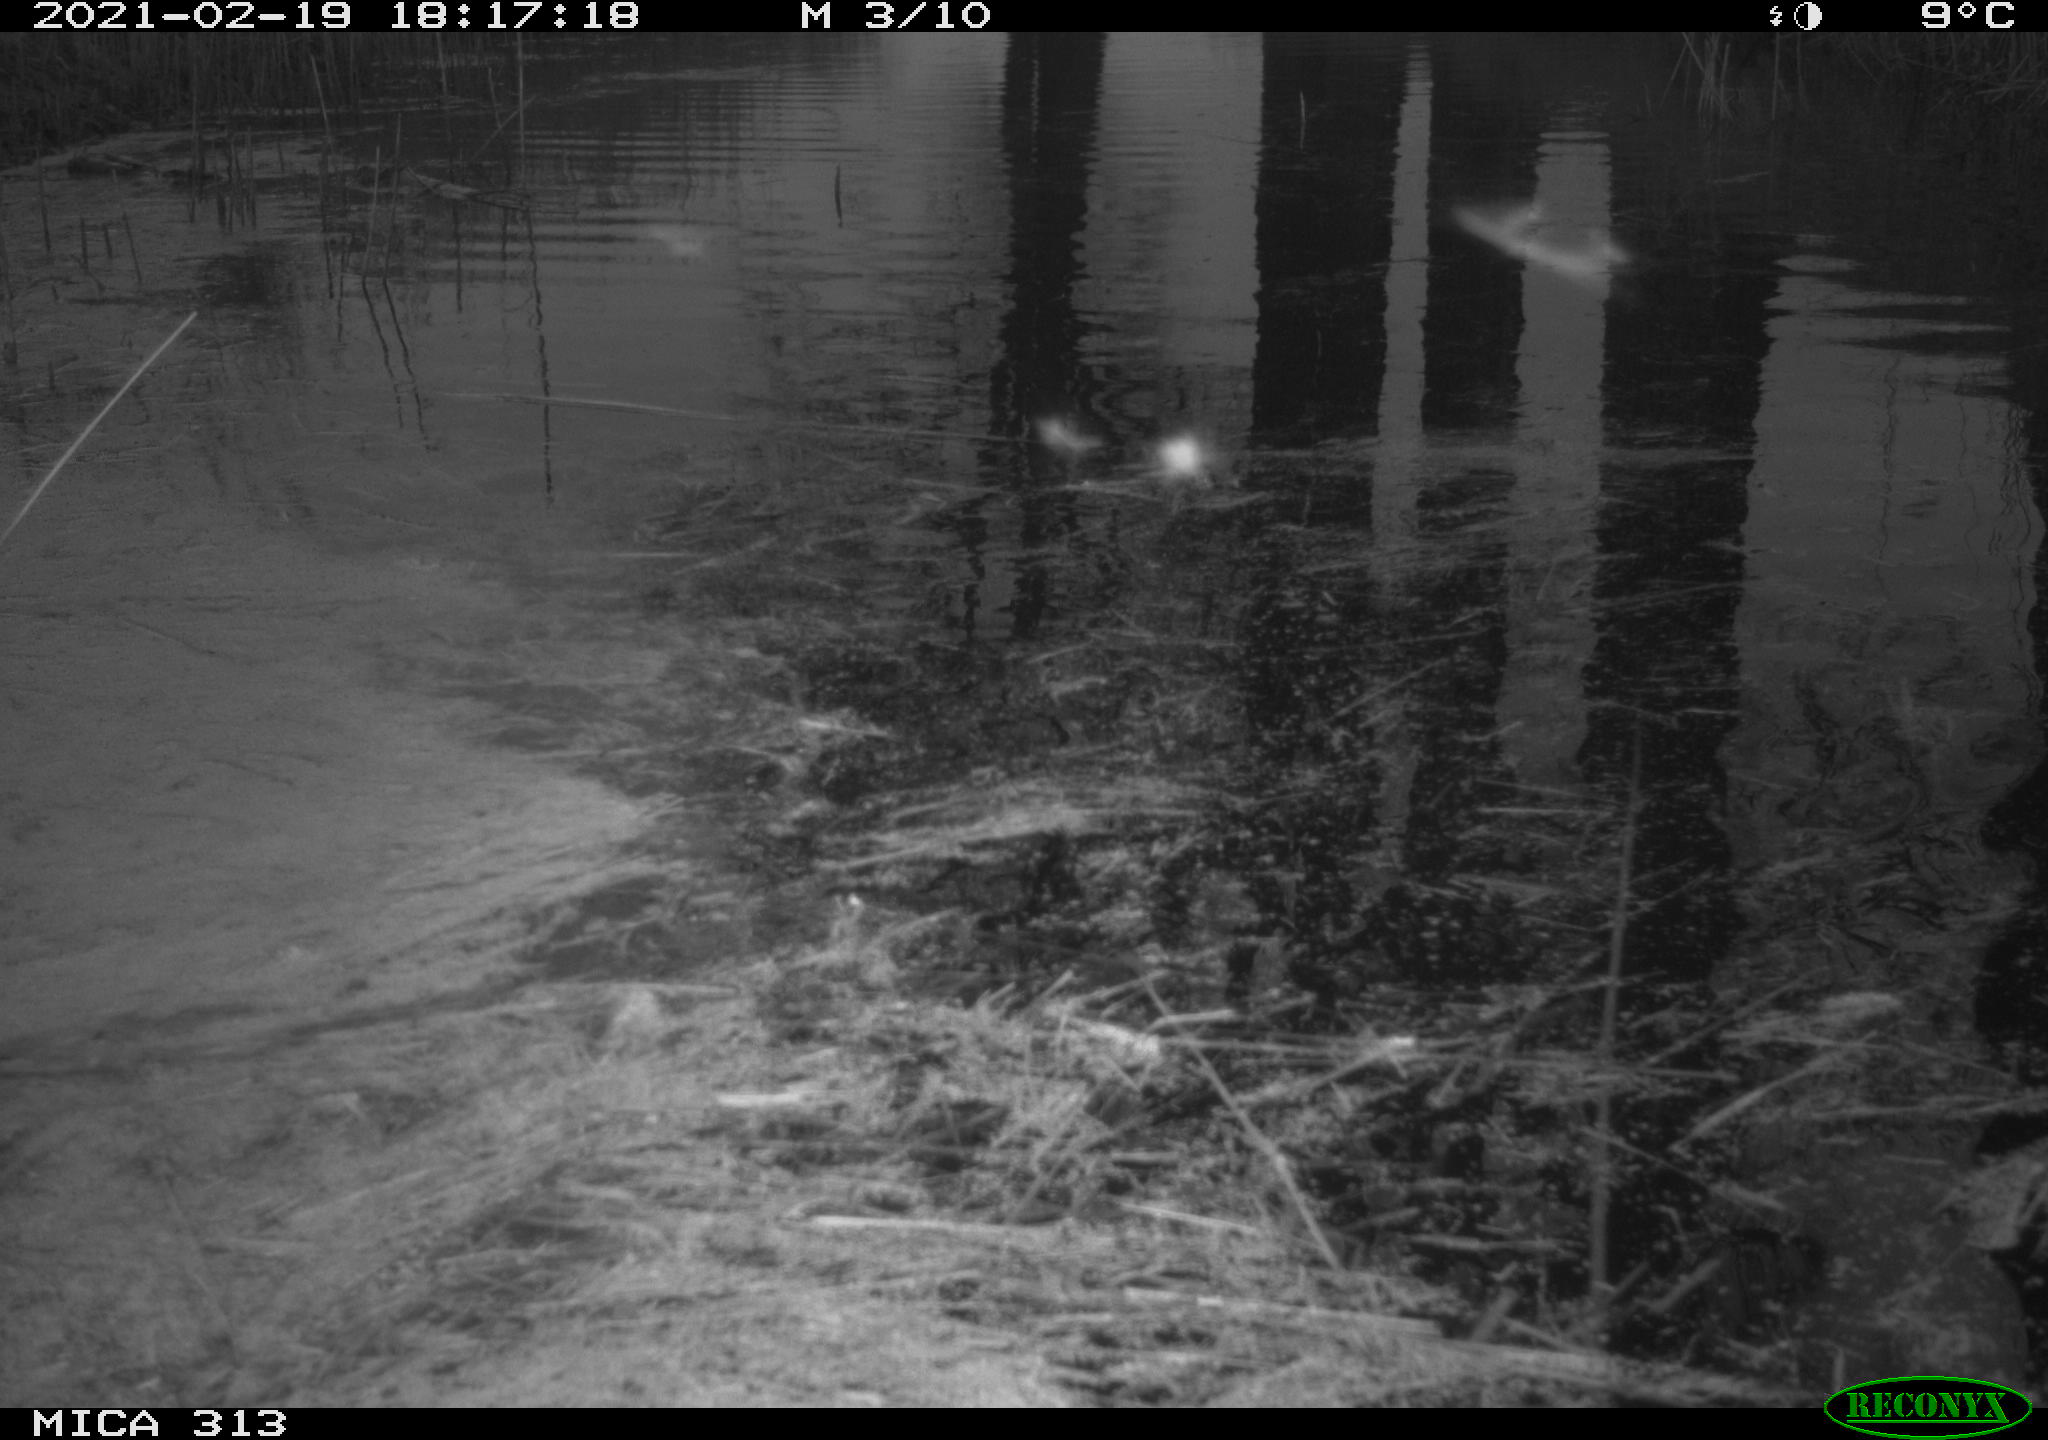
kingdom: Animalia
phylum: Chordata
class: Aves
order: Gruiformes
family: Rallidae
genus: Gallinula
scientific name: Gallinula chloropus
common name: Common moorhen
